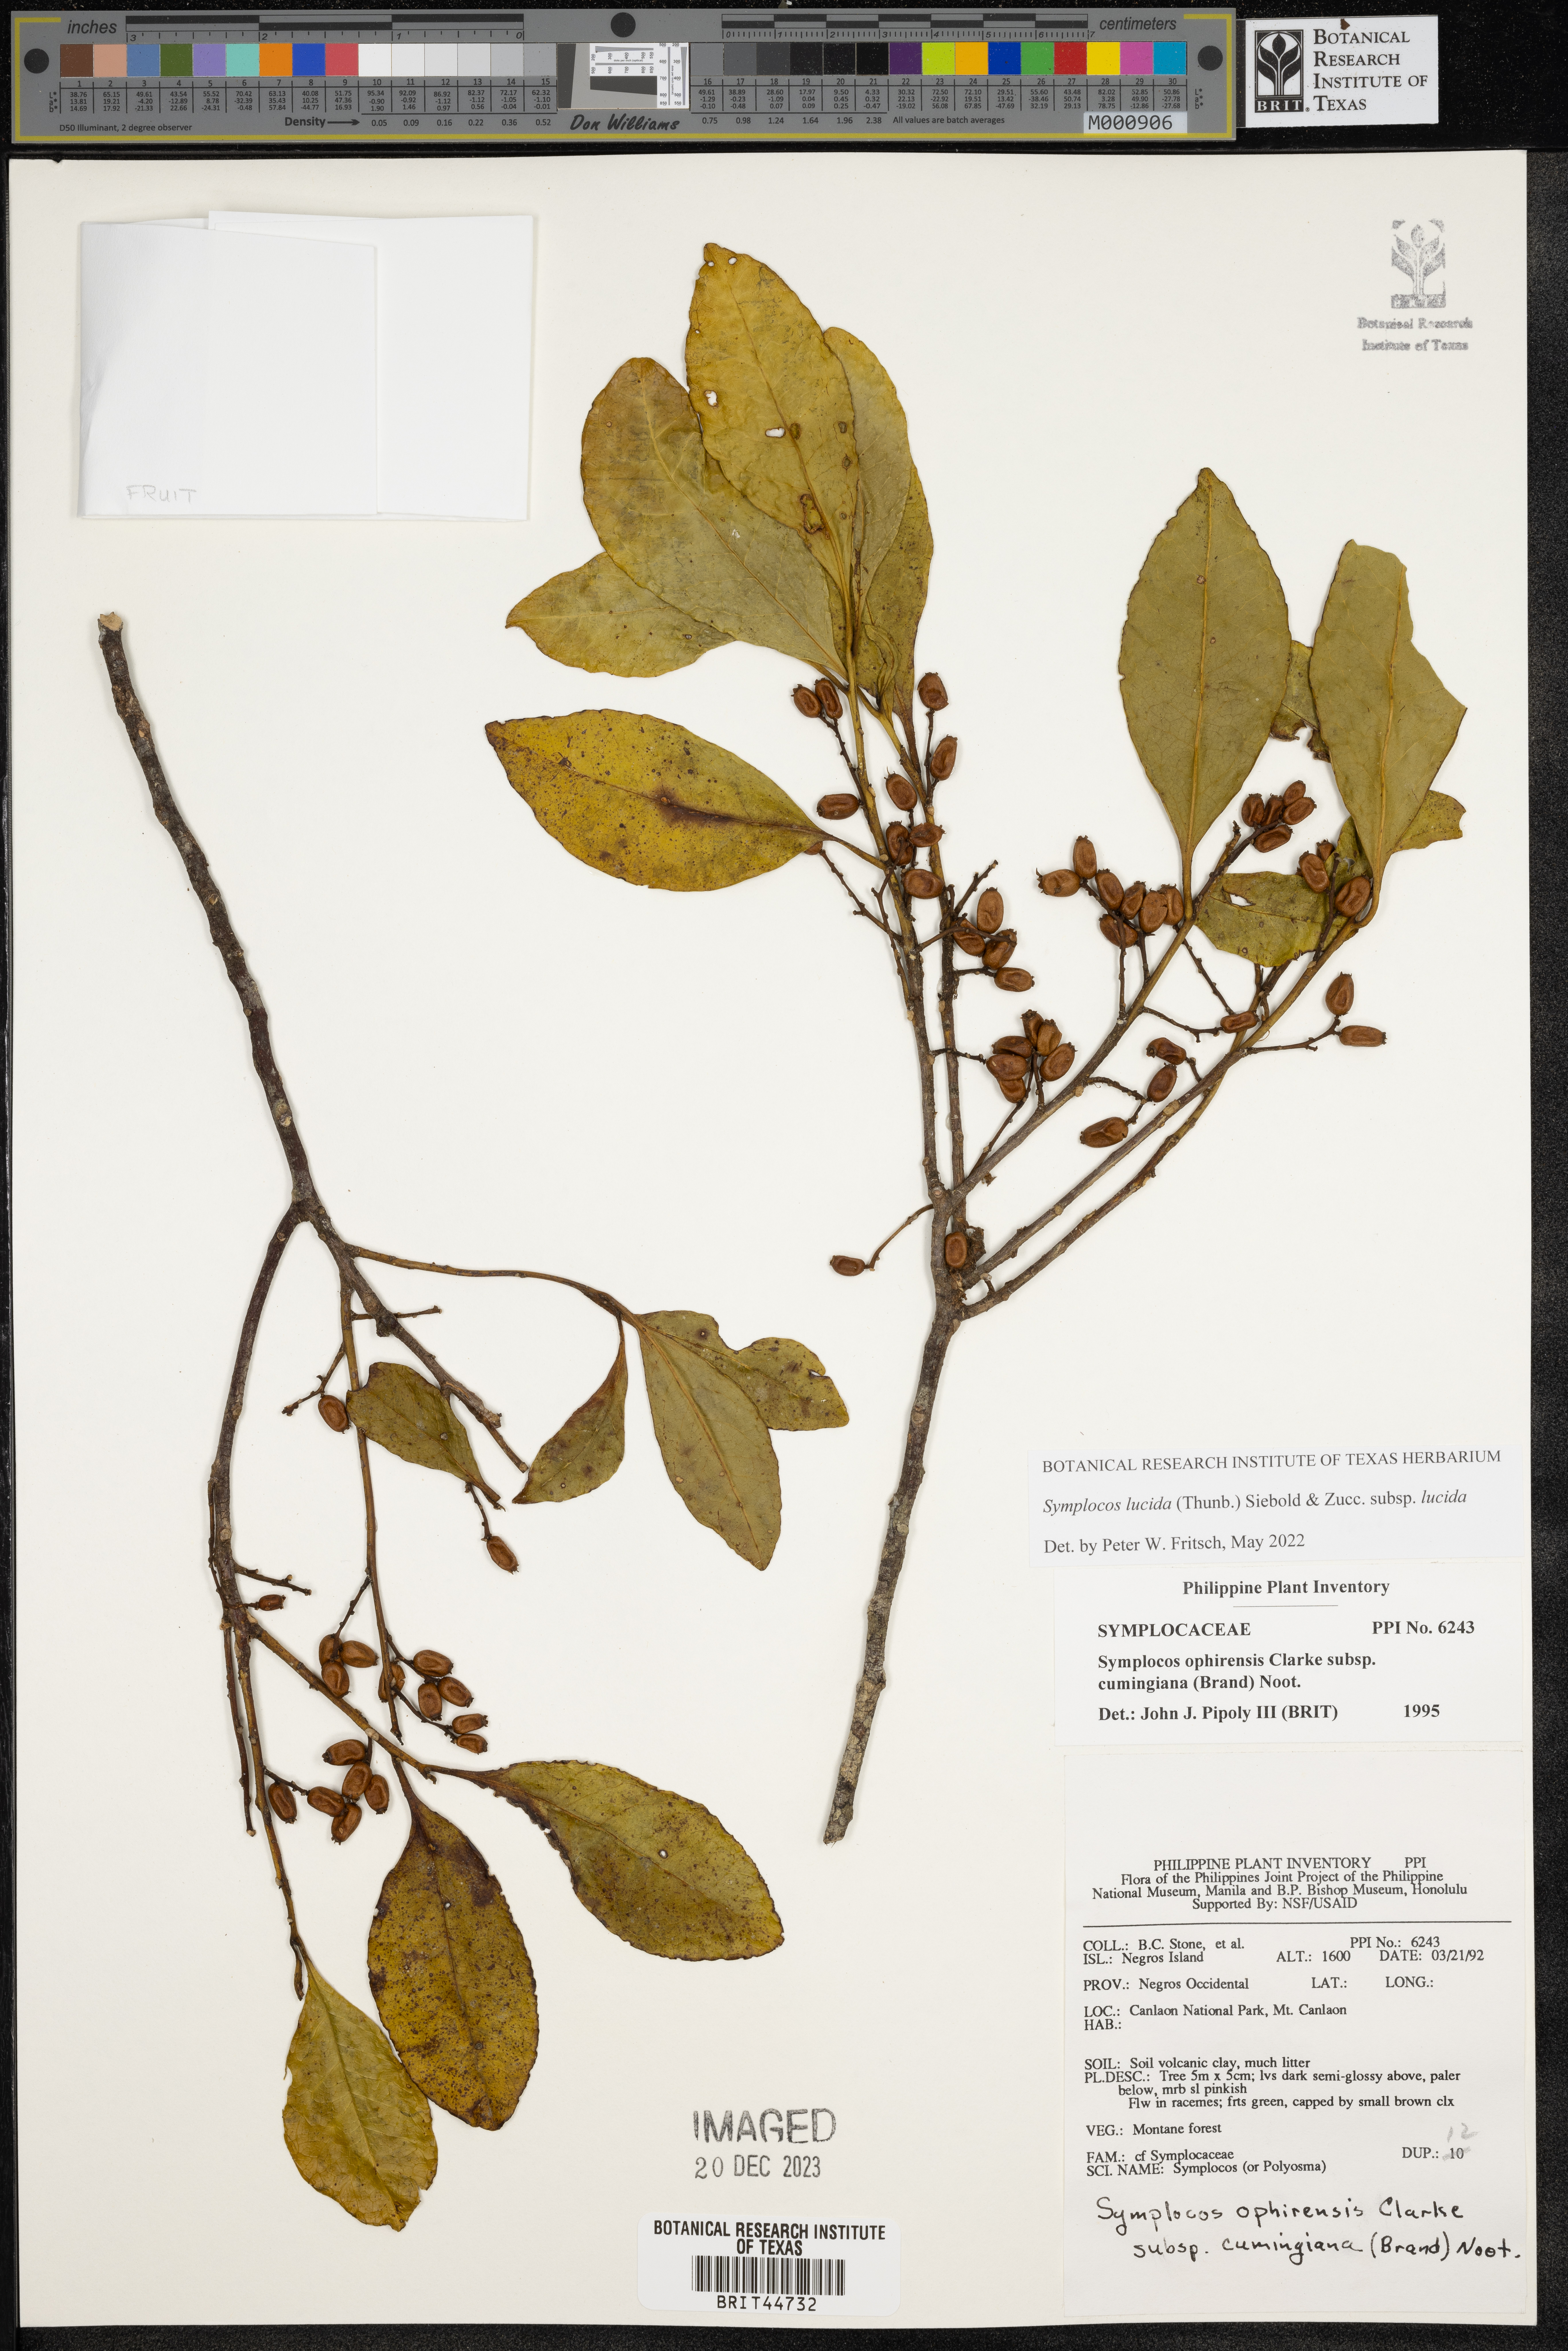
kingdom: Plantae
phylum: Tracheophyta
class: Magnoliopsida
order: Ericales
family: Symplocaceae
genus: Symplocos
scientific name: Symplocos ophirensis
